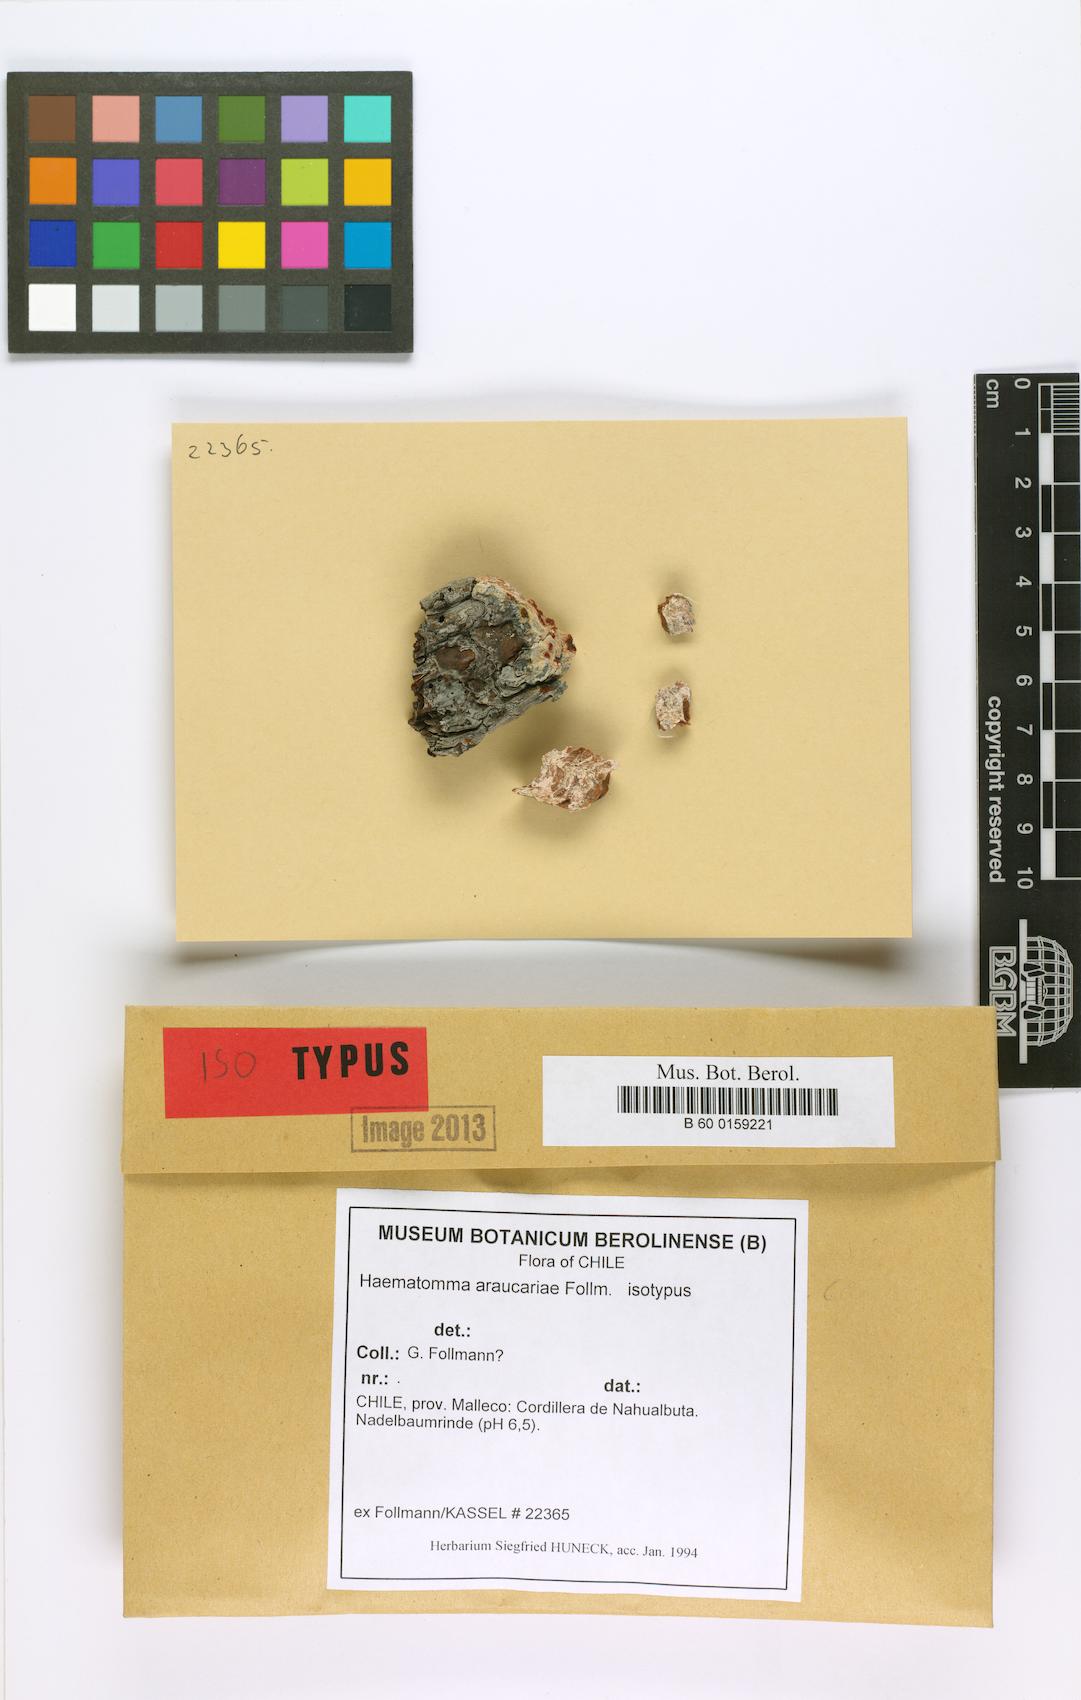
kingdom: Fungi
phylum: Ascomycota
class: Lecanoromycetes
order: Lecanorales
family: Haematommataceae
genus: Haematomma
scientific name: Haematomma
